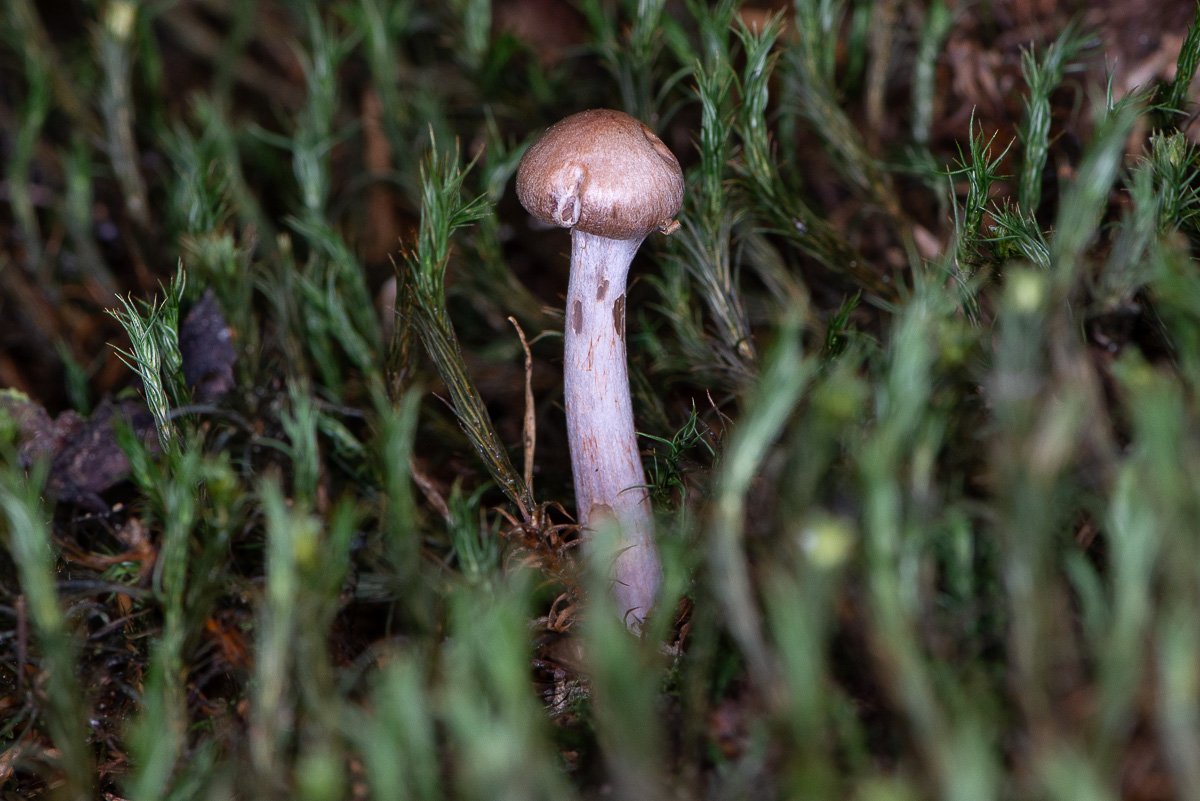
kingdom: Fungi
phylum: Basidiomycota
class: Agaricomycetes
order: Agaricales
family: Cortinariaceae
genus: Cortinarius
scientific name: Cortinarius
